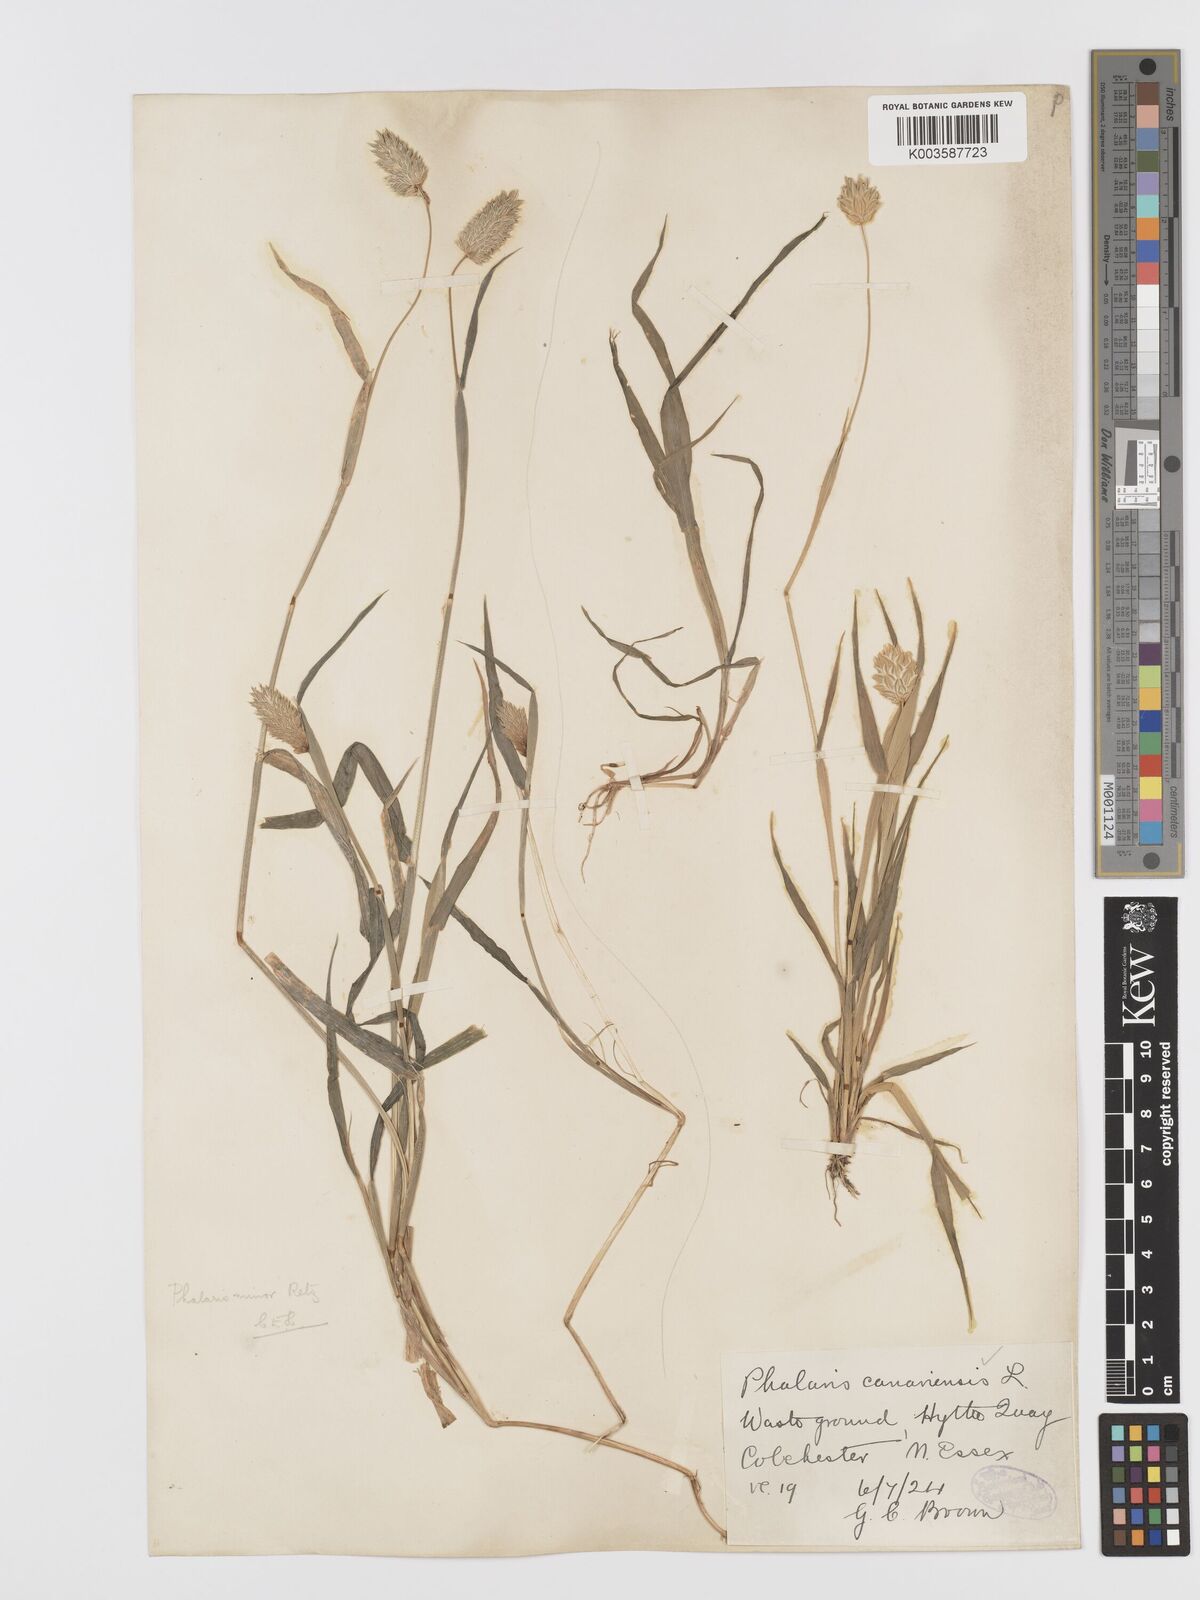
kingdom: Plantae
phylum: Tracheophyta
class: Liliopsida
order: Poales
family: Poaceae
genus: Phalaris
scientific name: Phalaris minor
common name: Littleseed canarygrass
